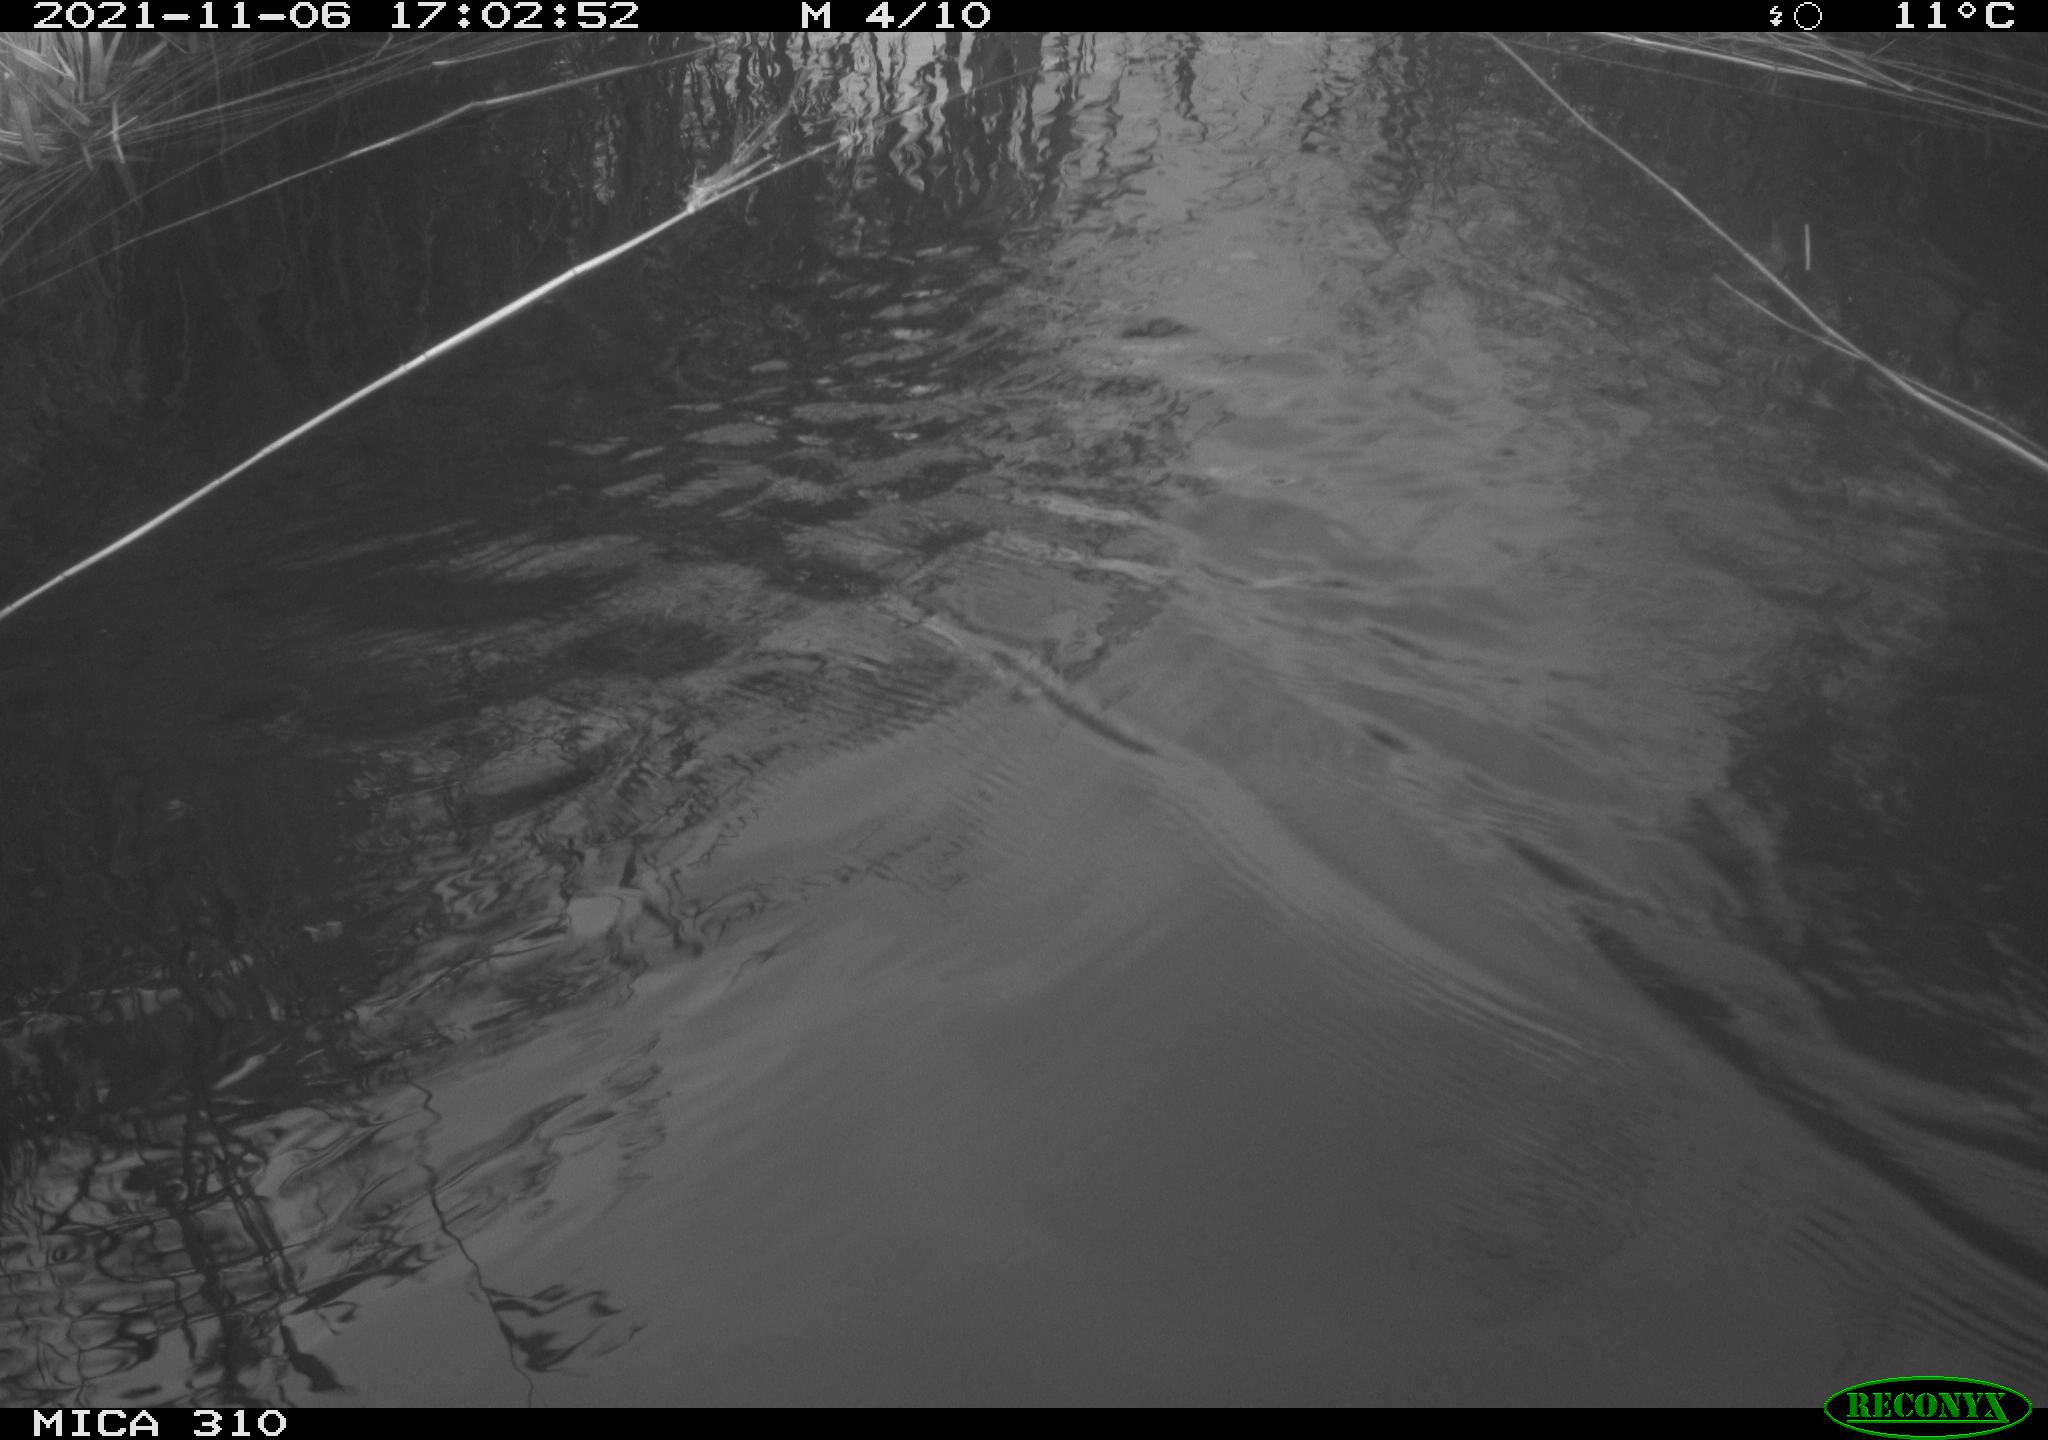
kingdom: Animalia
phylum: Chordata
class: Aves
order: Gruiformes
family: Rallidae
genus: Gallinula
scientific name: Gallinula chloropus
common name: Common moorhen
